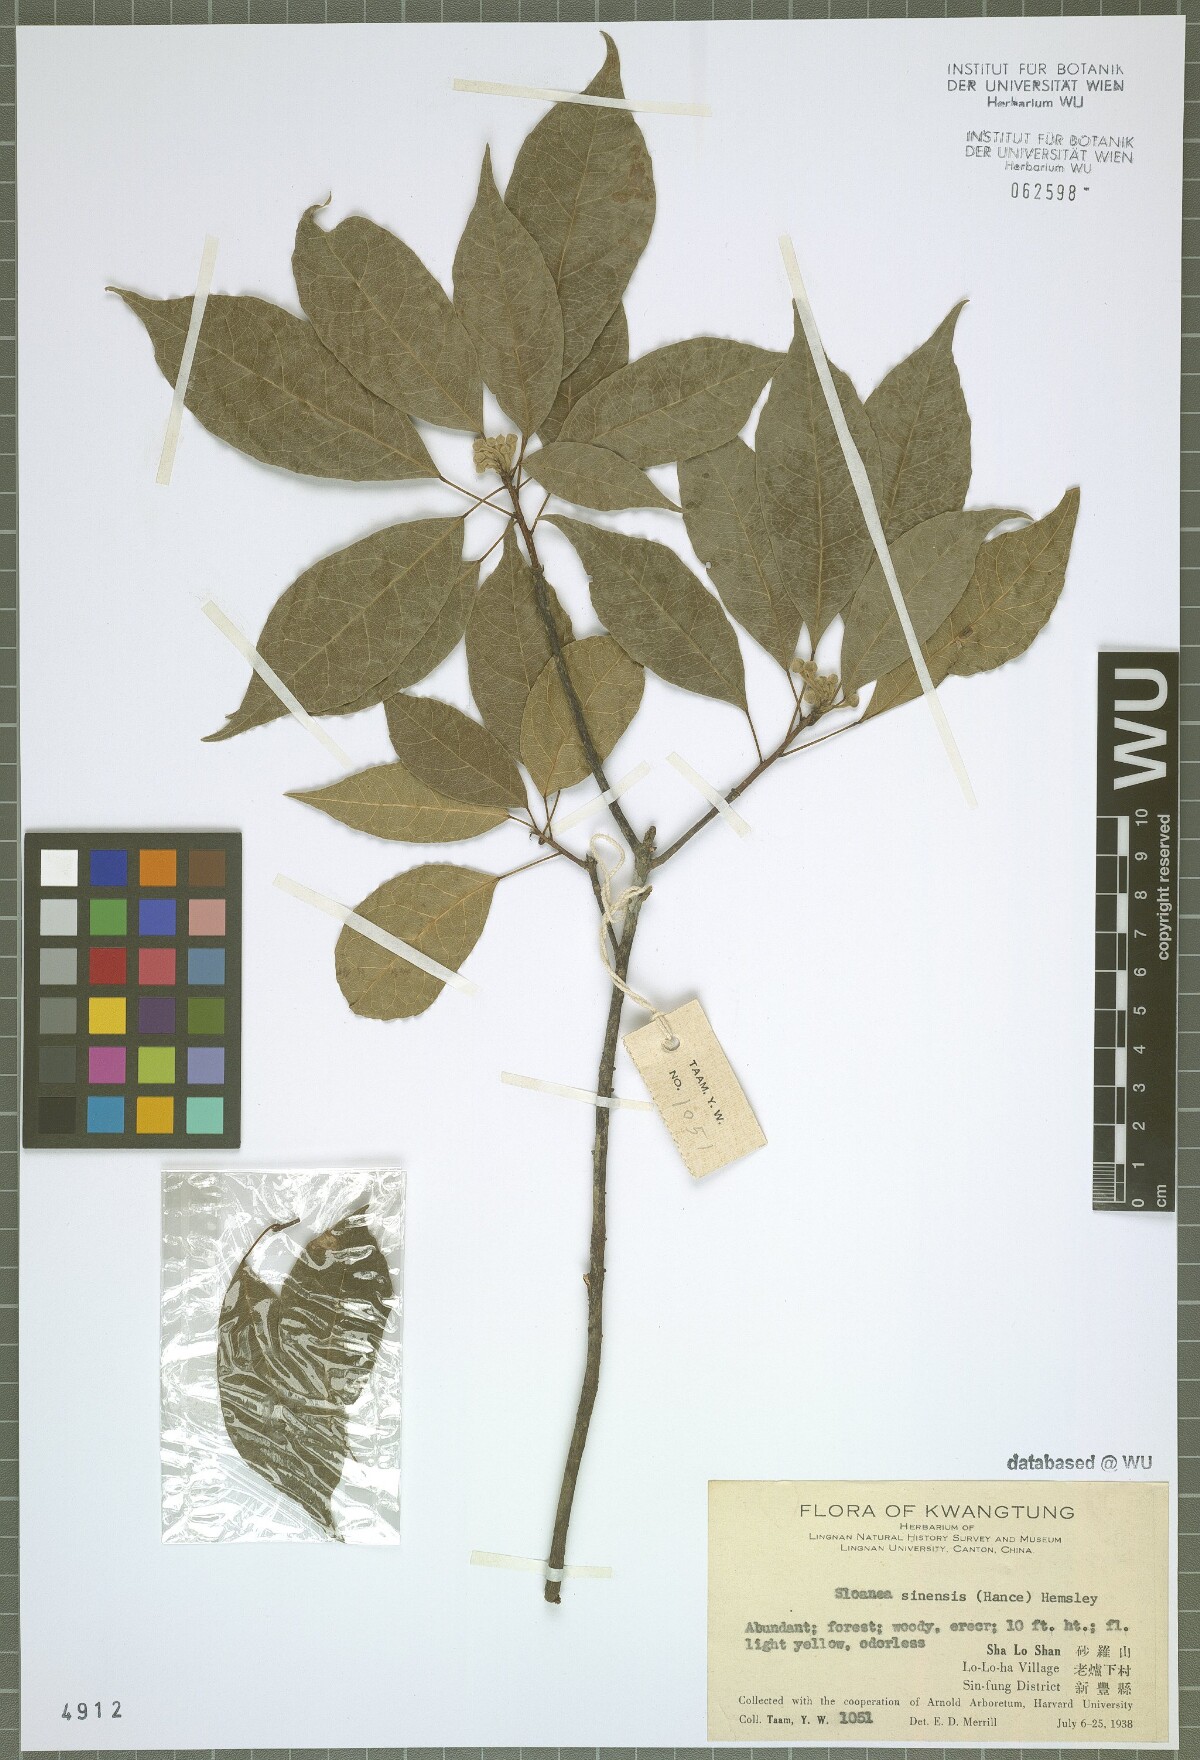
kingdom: Plantae
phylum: Tracheophyta
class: Magnoliopsida
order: Oxalidales
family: Elaeocarpaceae
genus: Sloanea
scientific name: Sloanea sinensis
